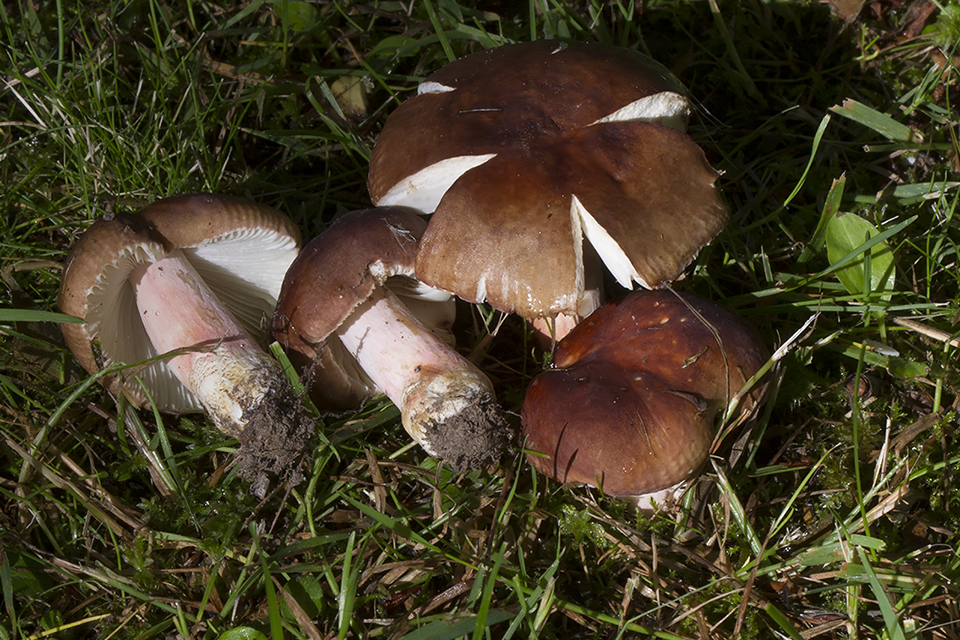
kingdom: Fungi
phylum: Basidiomycota
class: Agaricomycetes
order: Russulales
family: Russulaceae
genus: Russula
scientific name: Russula amoenoides
